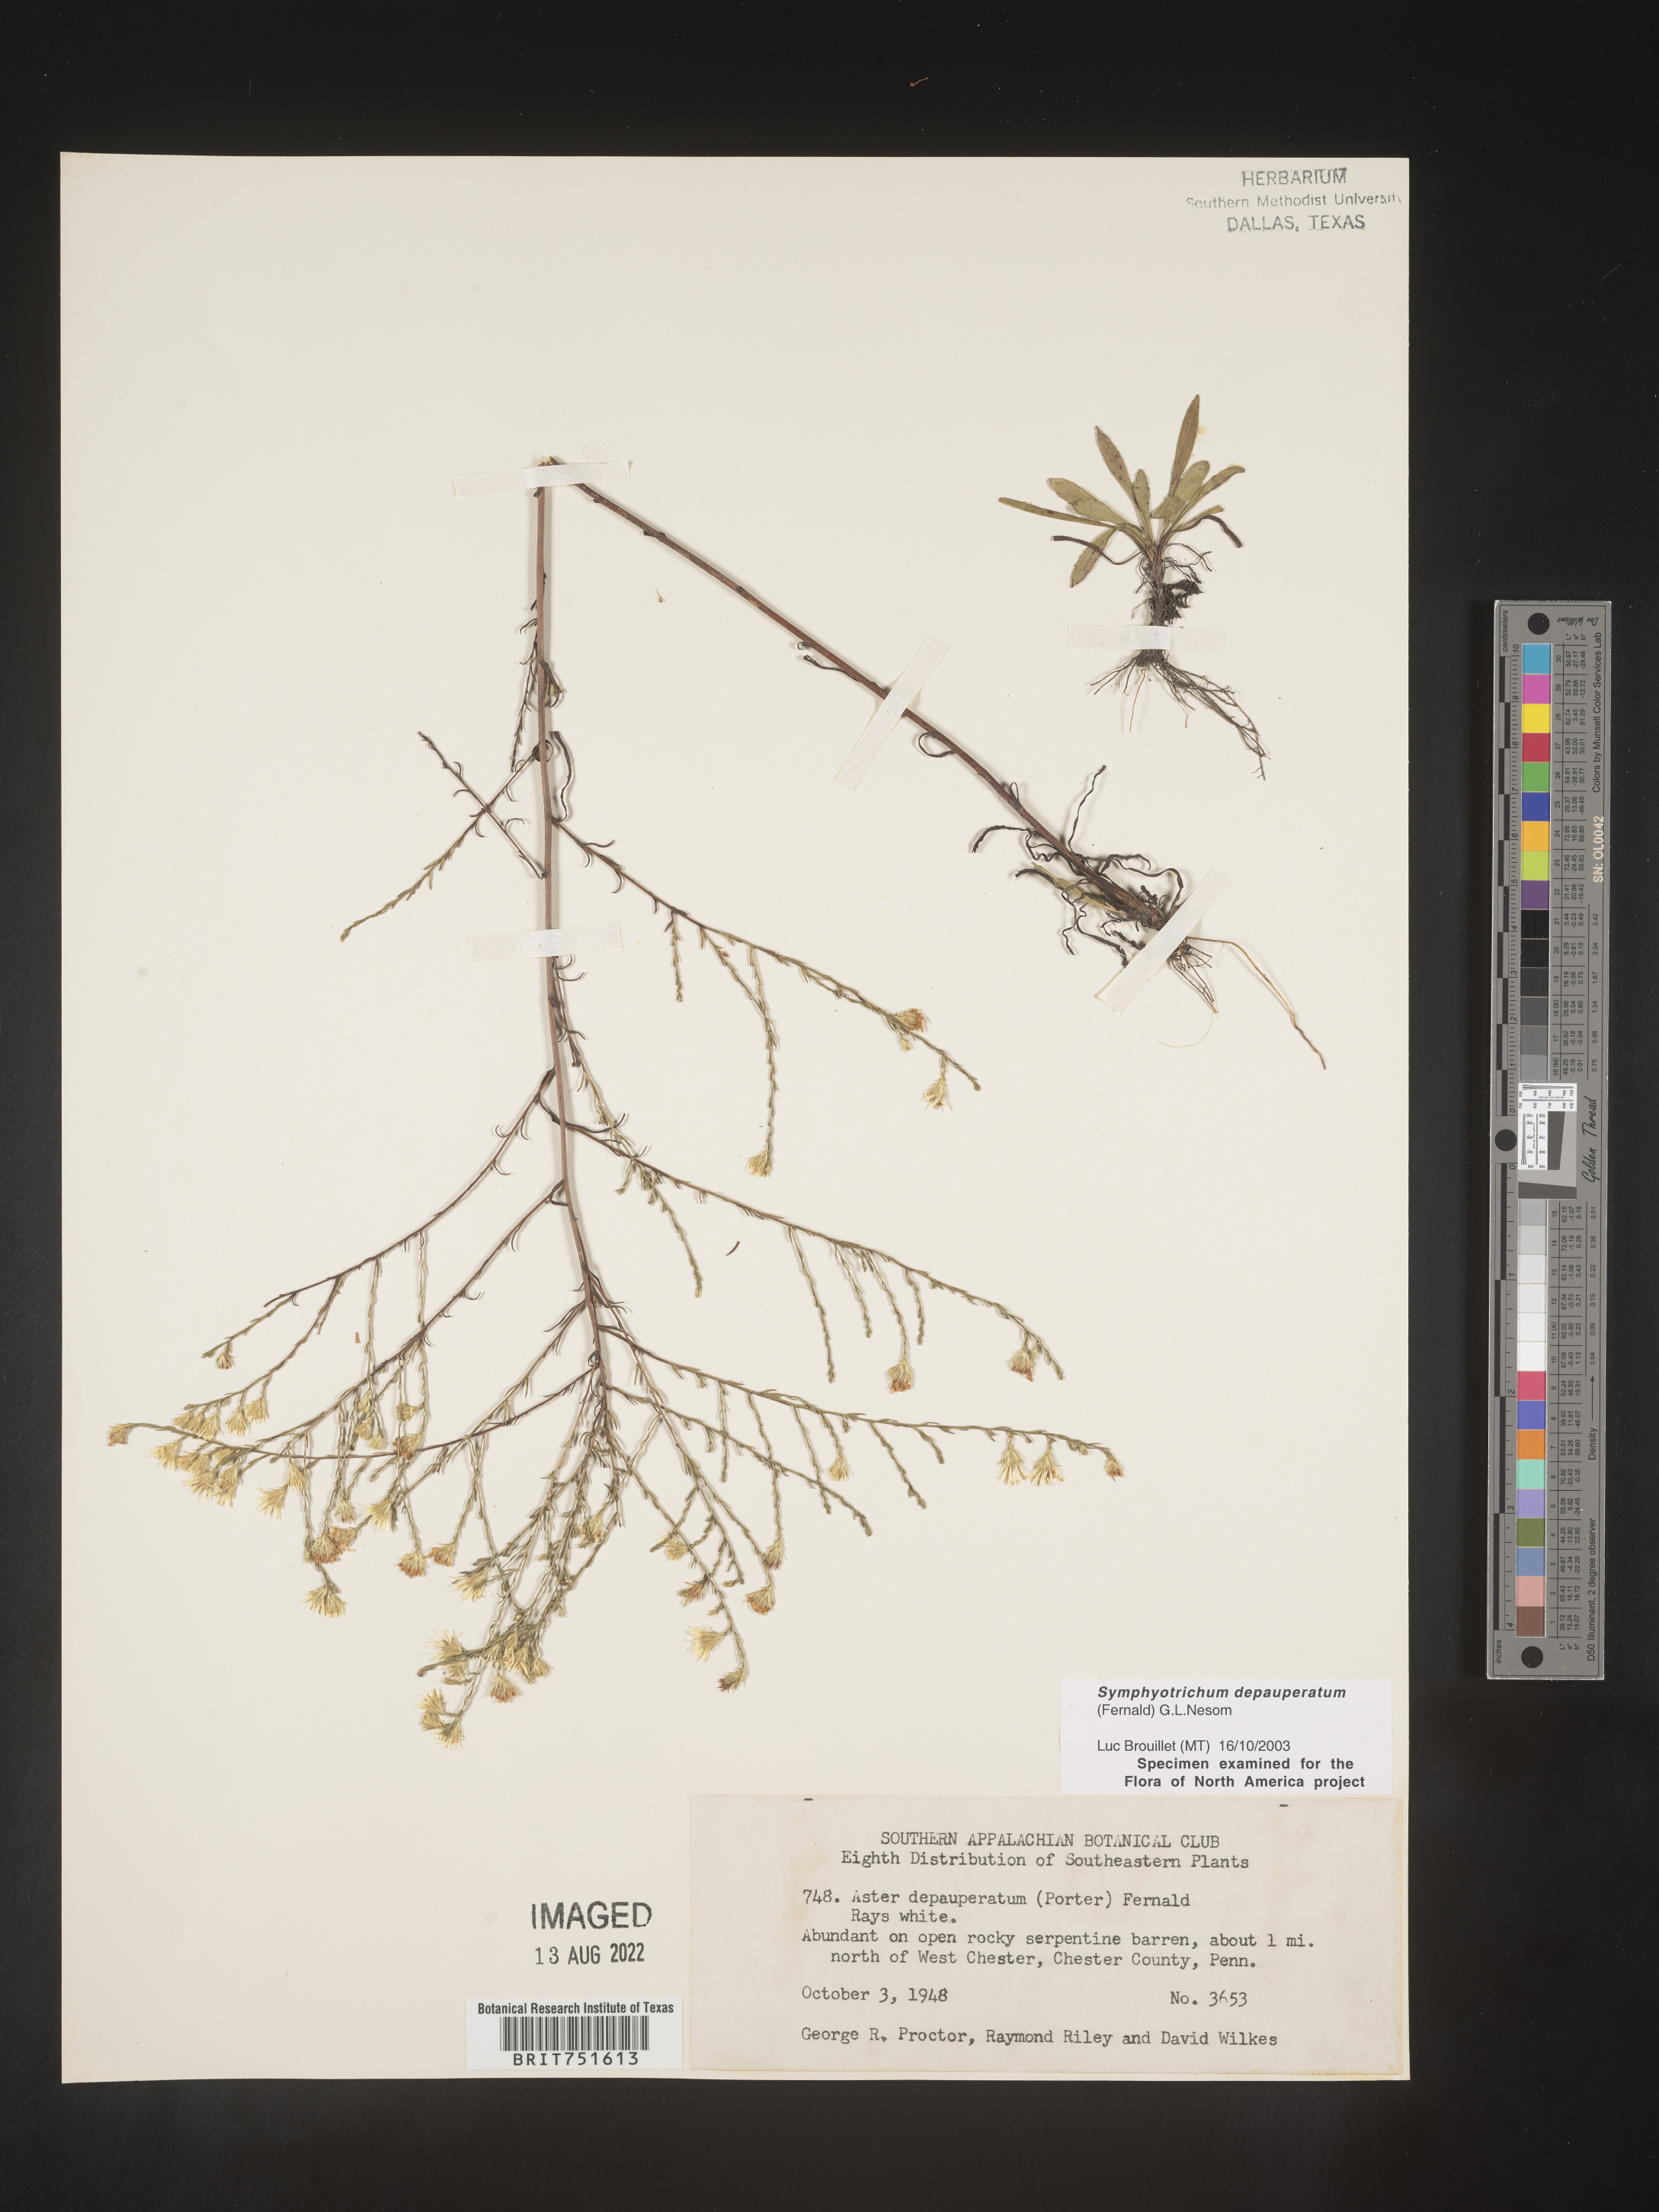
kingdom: Plantae
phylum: Tracheophyta
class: Magnoliopsida
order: Asterales
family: Asteraceae
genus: Symphyotrichum
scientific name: Symphyotrichum depauperatum
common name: Serpentine aster
